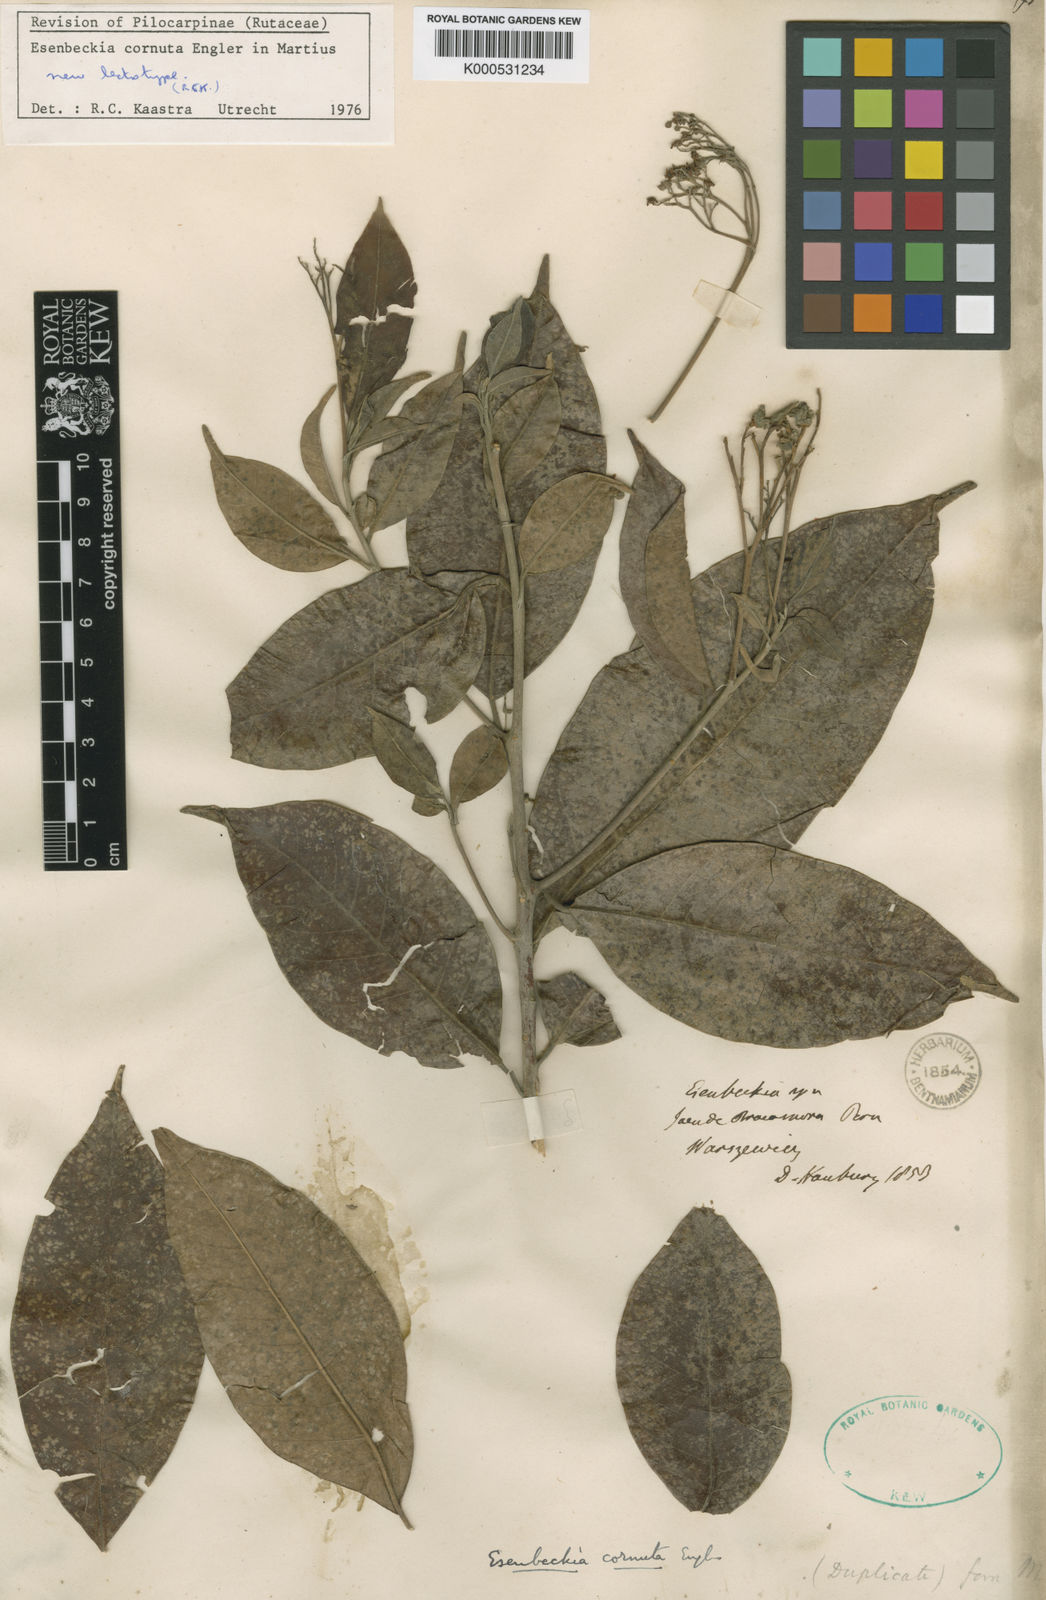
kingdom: Animalia
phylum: Arthropoda
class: Insecta
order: Diptera
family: Tabanidae
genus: Esenbeckia
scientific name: Esenbeckia cornuta
